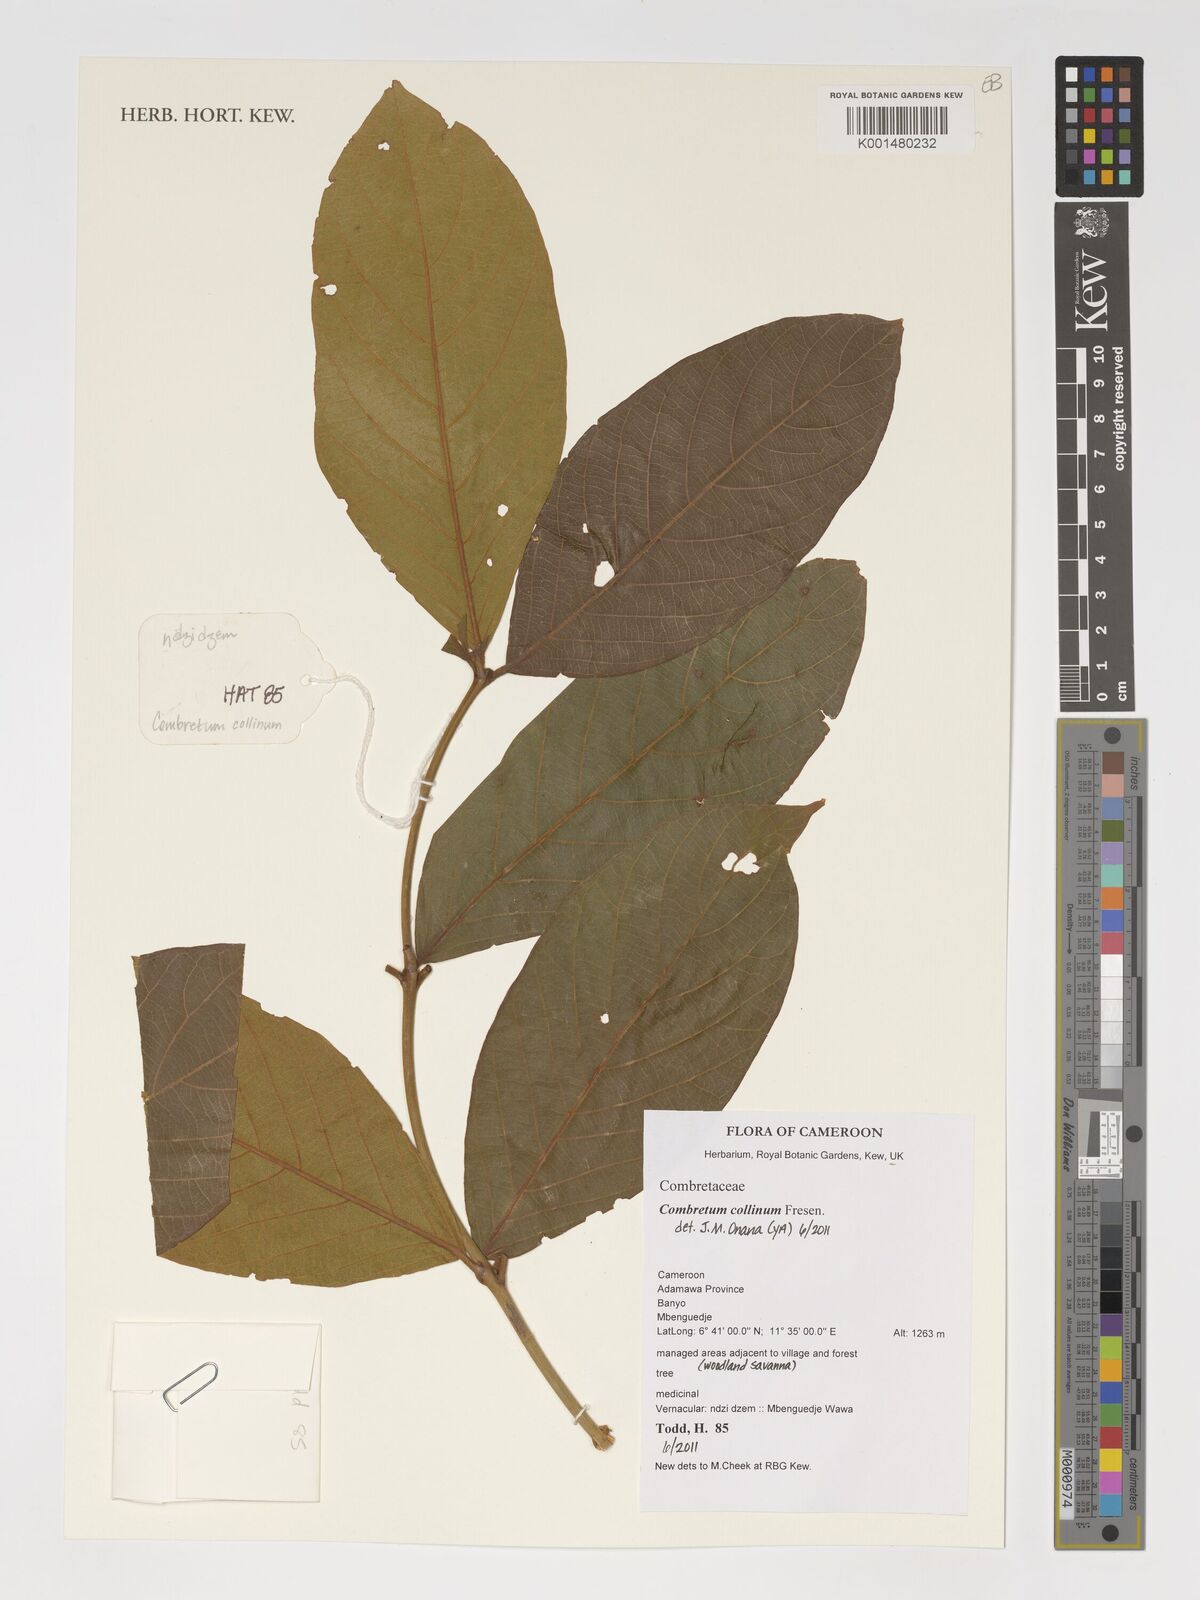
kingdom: Plantae
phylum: Tracheophyta
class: Magnoliopsida
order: Myrtales
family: Combretaceae
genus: Combretum
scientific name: Combretum collinum
